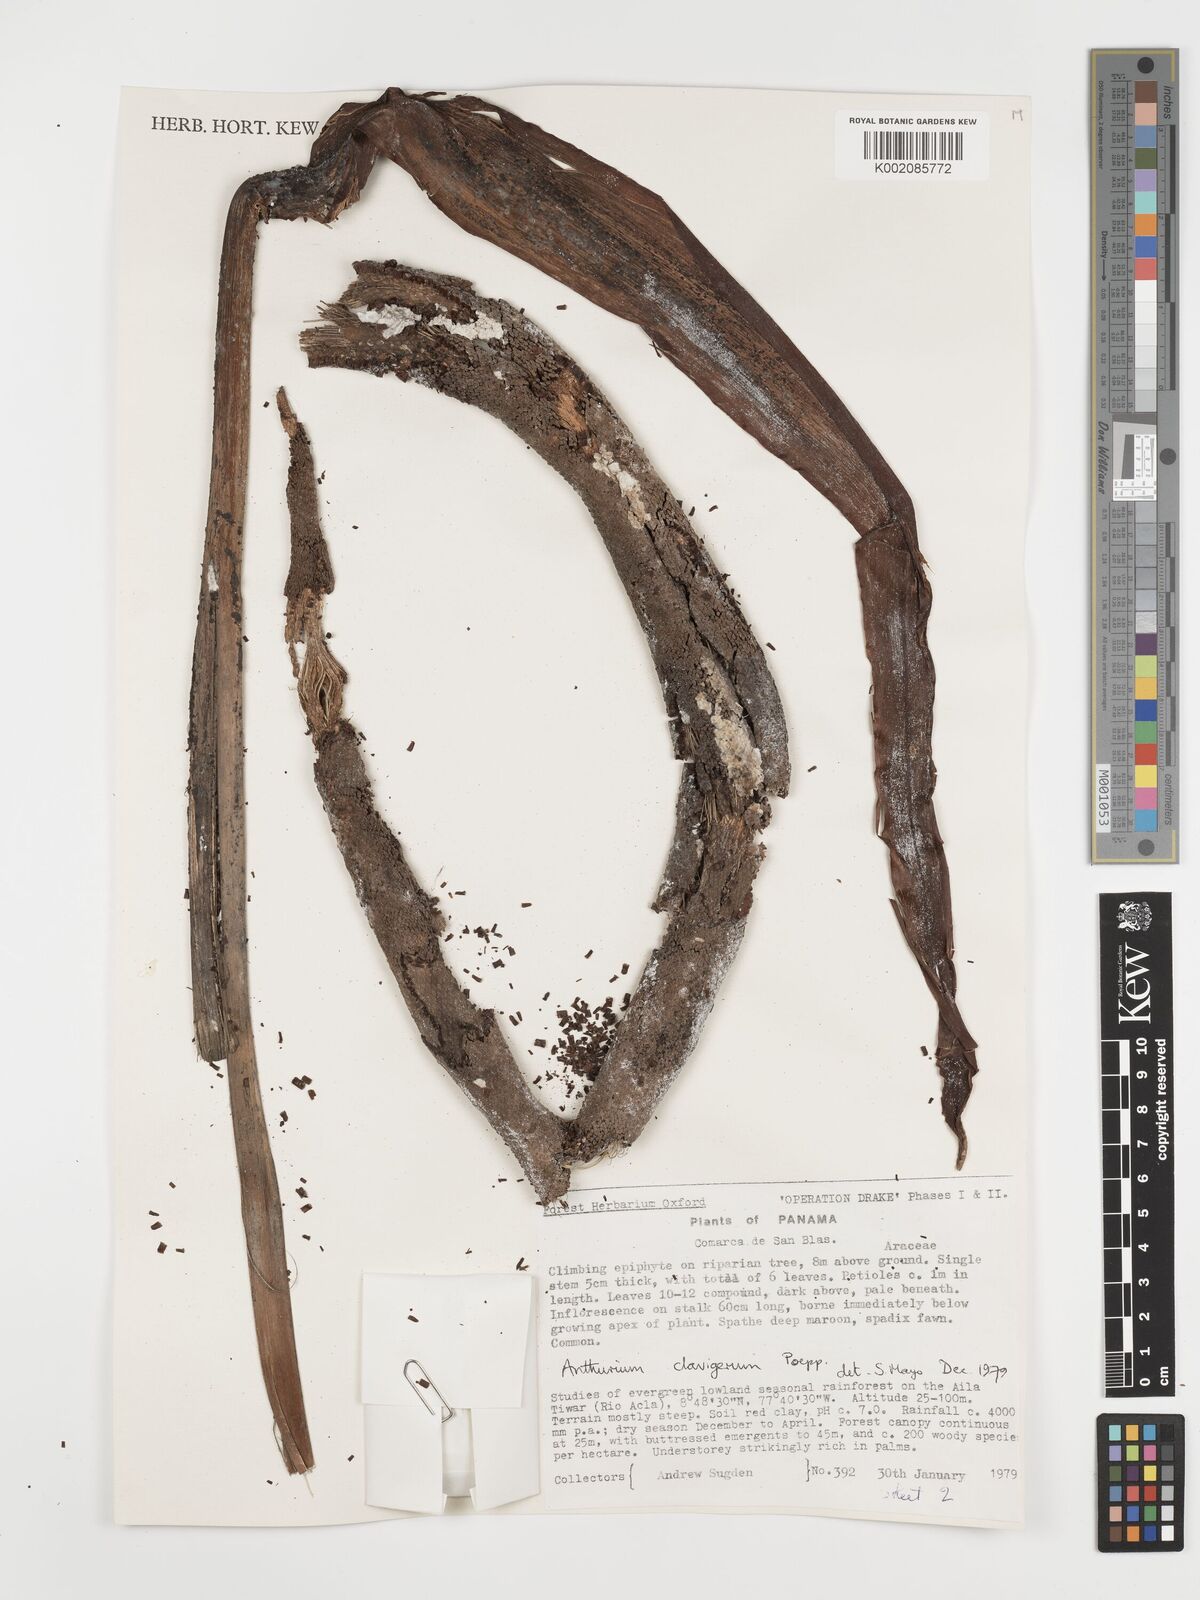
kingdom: Plantae
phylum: Tracheophyta
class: Liliopsida
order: Alismatales
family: Araceae
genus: Anthurium
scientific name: Anthurium clavigerum
